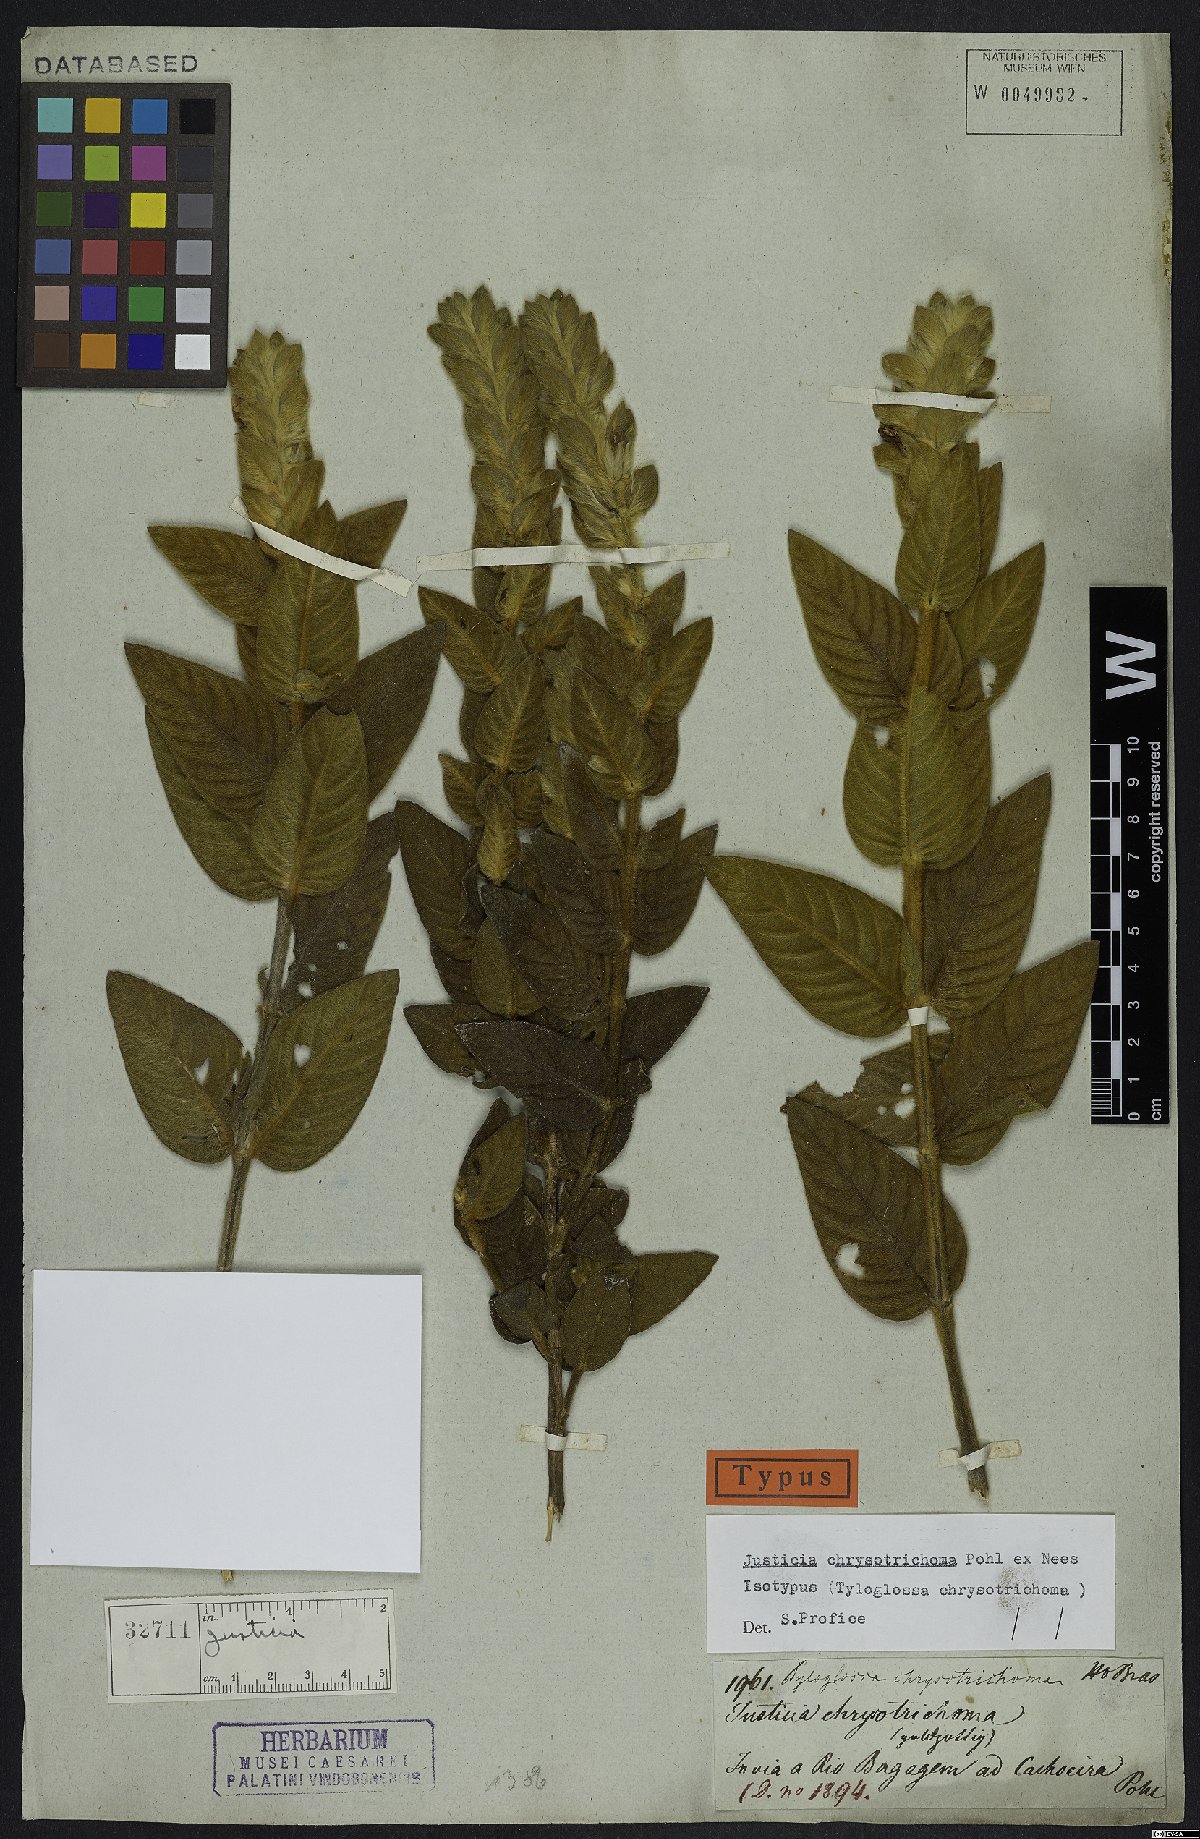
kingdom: Plantae
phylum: Tracheophyta
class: Magnoliopsida
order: Lamiales
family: Acanthaceae
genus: Justicia
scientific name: Justicia chrysotrichoma
